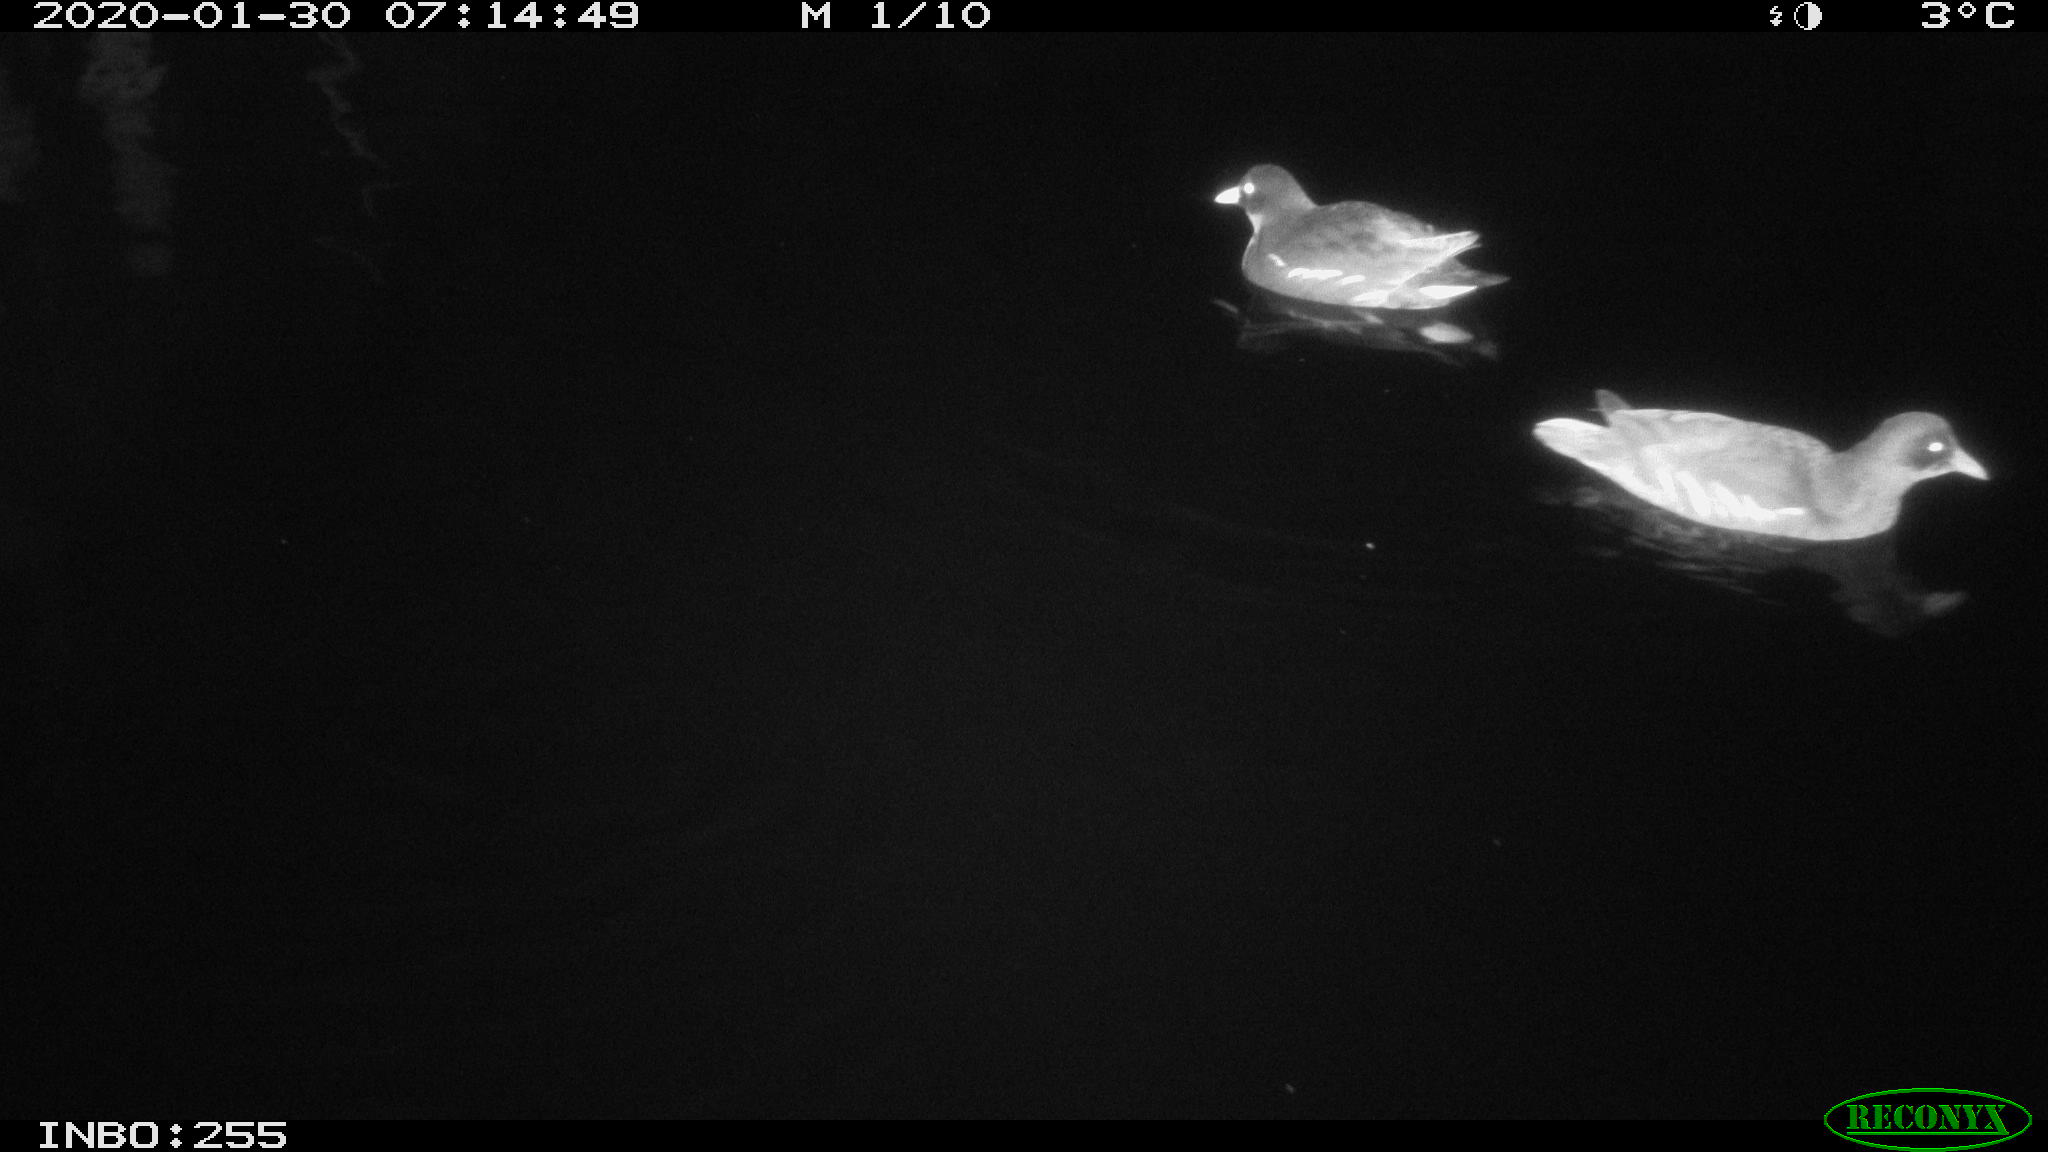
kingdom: Animalia
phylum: Chordata
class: Aves
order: Gruiformes
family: Rallidae
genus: Gallinula
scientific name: Gallinula chloropus
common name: Common moorhen
